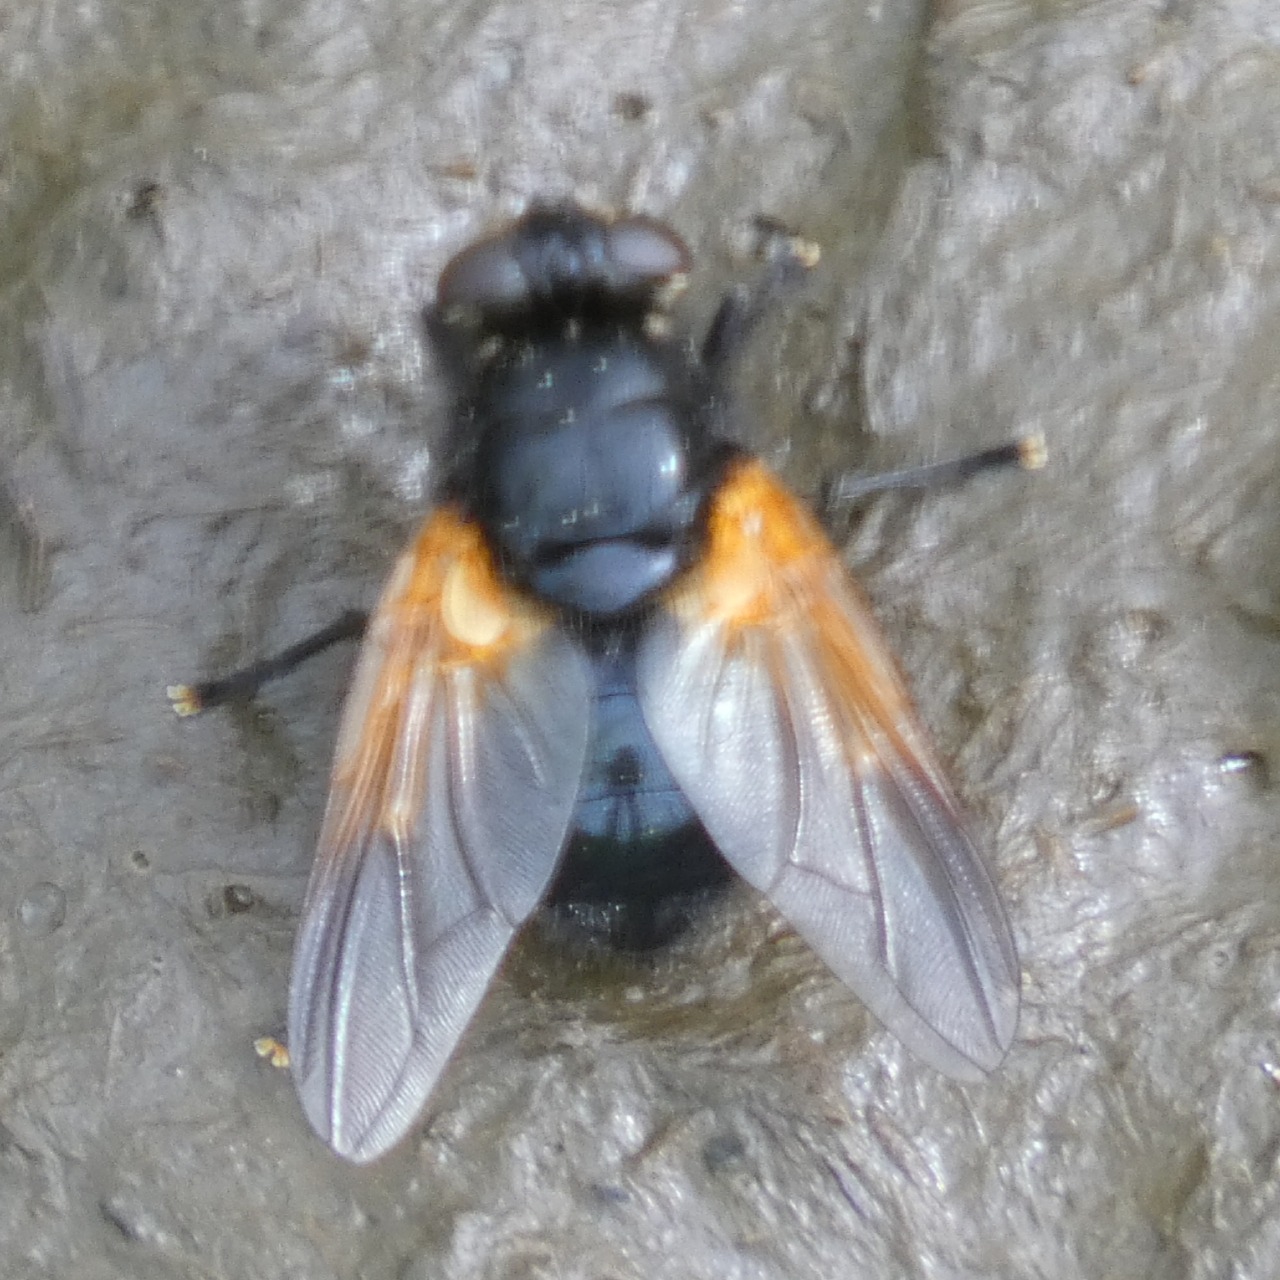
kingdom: Animalia
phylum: Arthropoda
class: Insecta
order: Diptera
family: Muscidae
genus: Mesembrina
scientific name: Mesembrina meridiana
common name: Gulvinget flue
